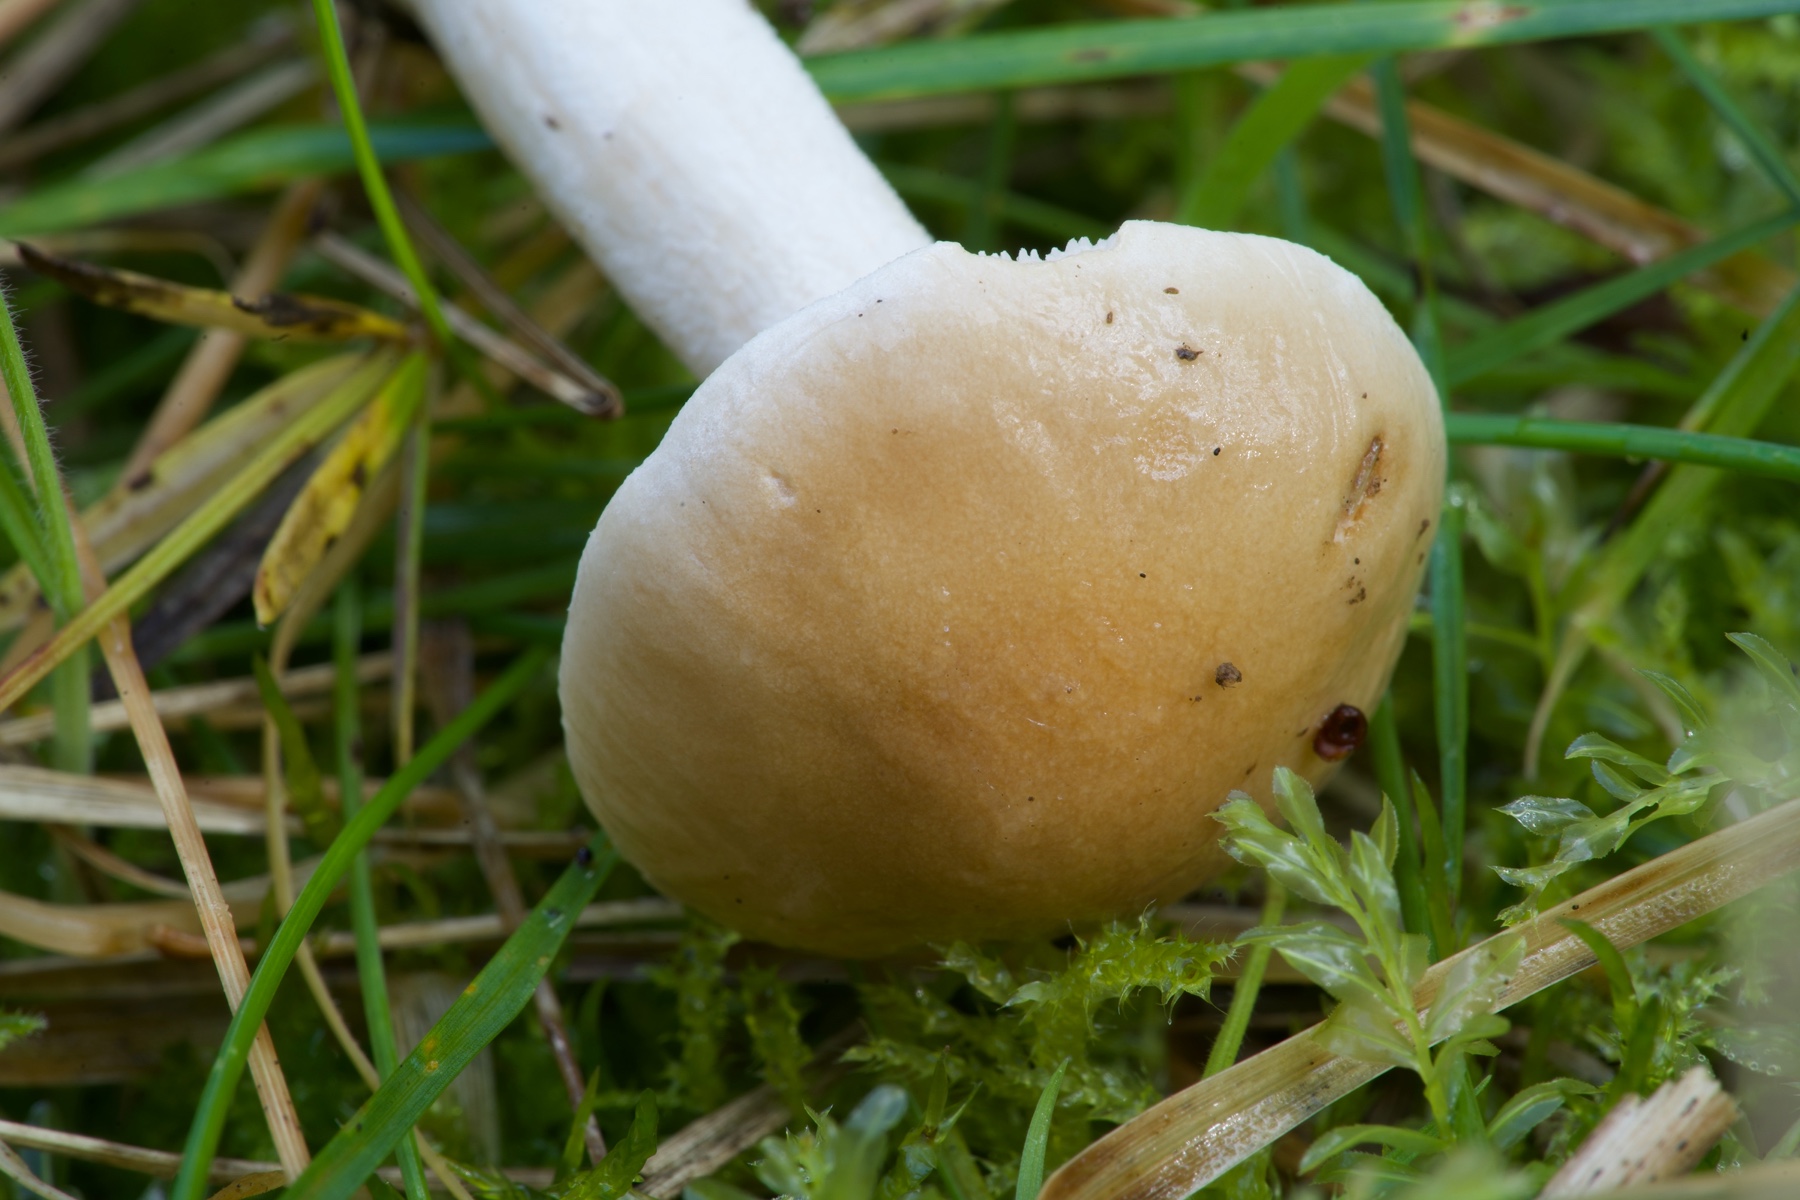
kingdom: Fungi
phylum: Basidiomycota
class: Agaricomycetes
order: Agaricales
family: Hymenogastraceae
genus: Hebeloma
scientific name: Hebeloma
